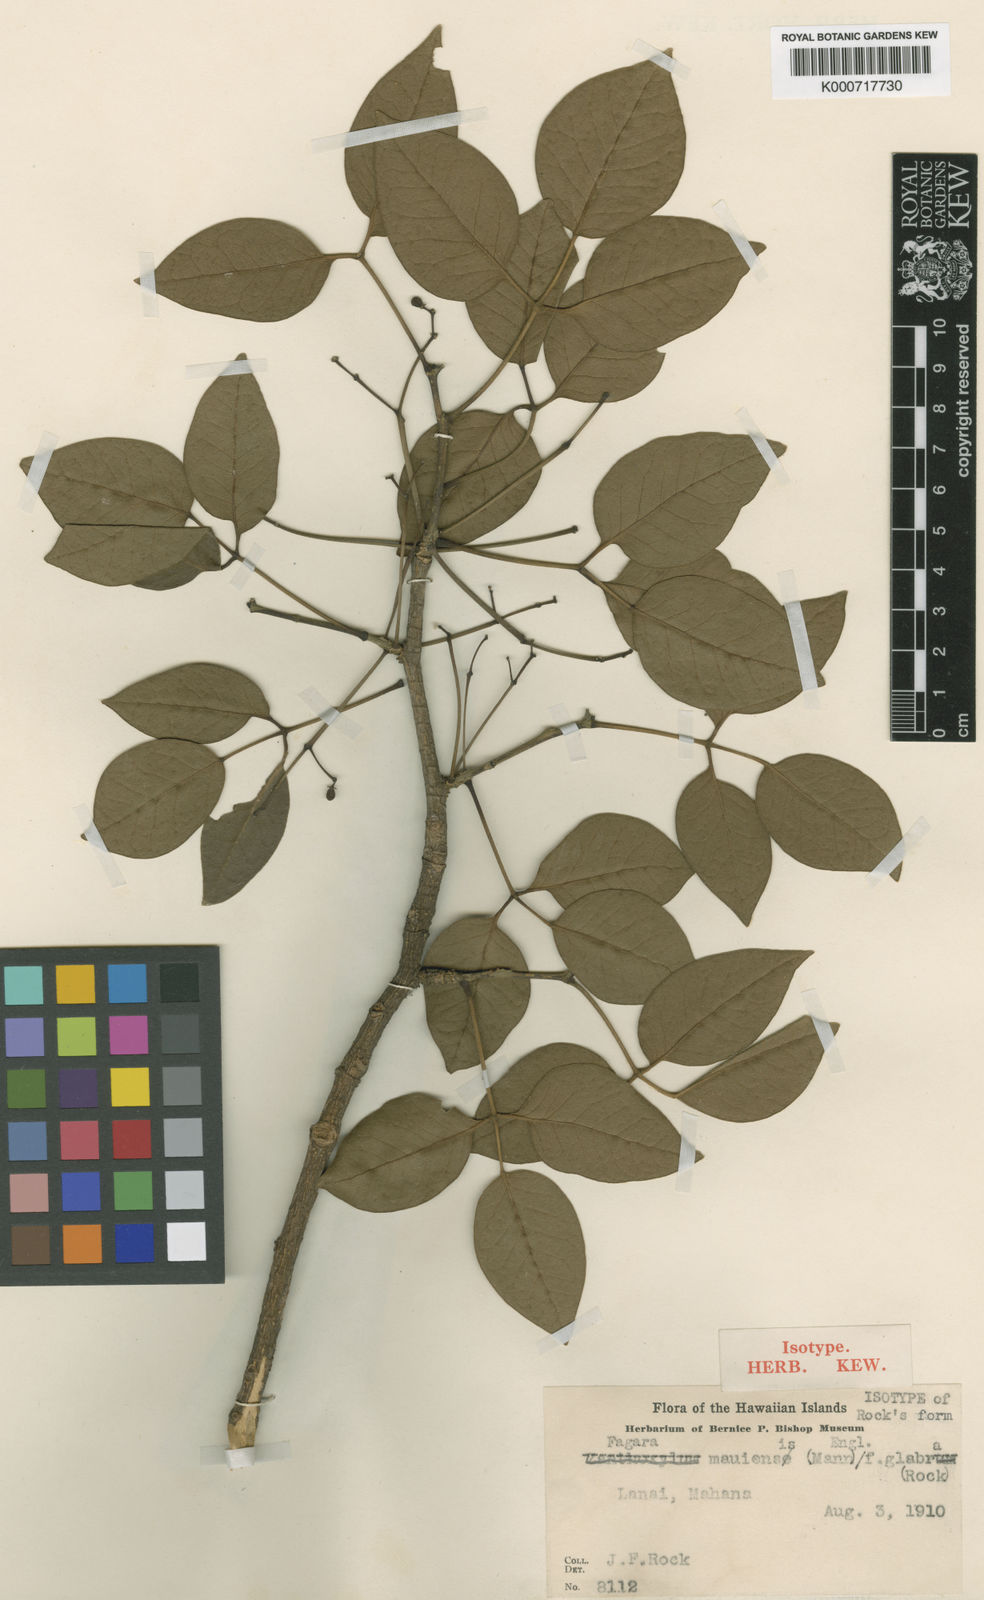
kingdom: Plantae
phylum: Tracheophyta
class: Magnoliopsida
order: Sapindales
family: Rutaceae
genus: Zanthoxylum
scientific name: Zanthoxylum kauaense
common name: Kauai prickly-ash
